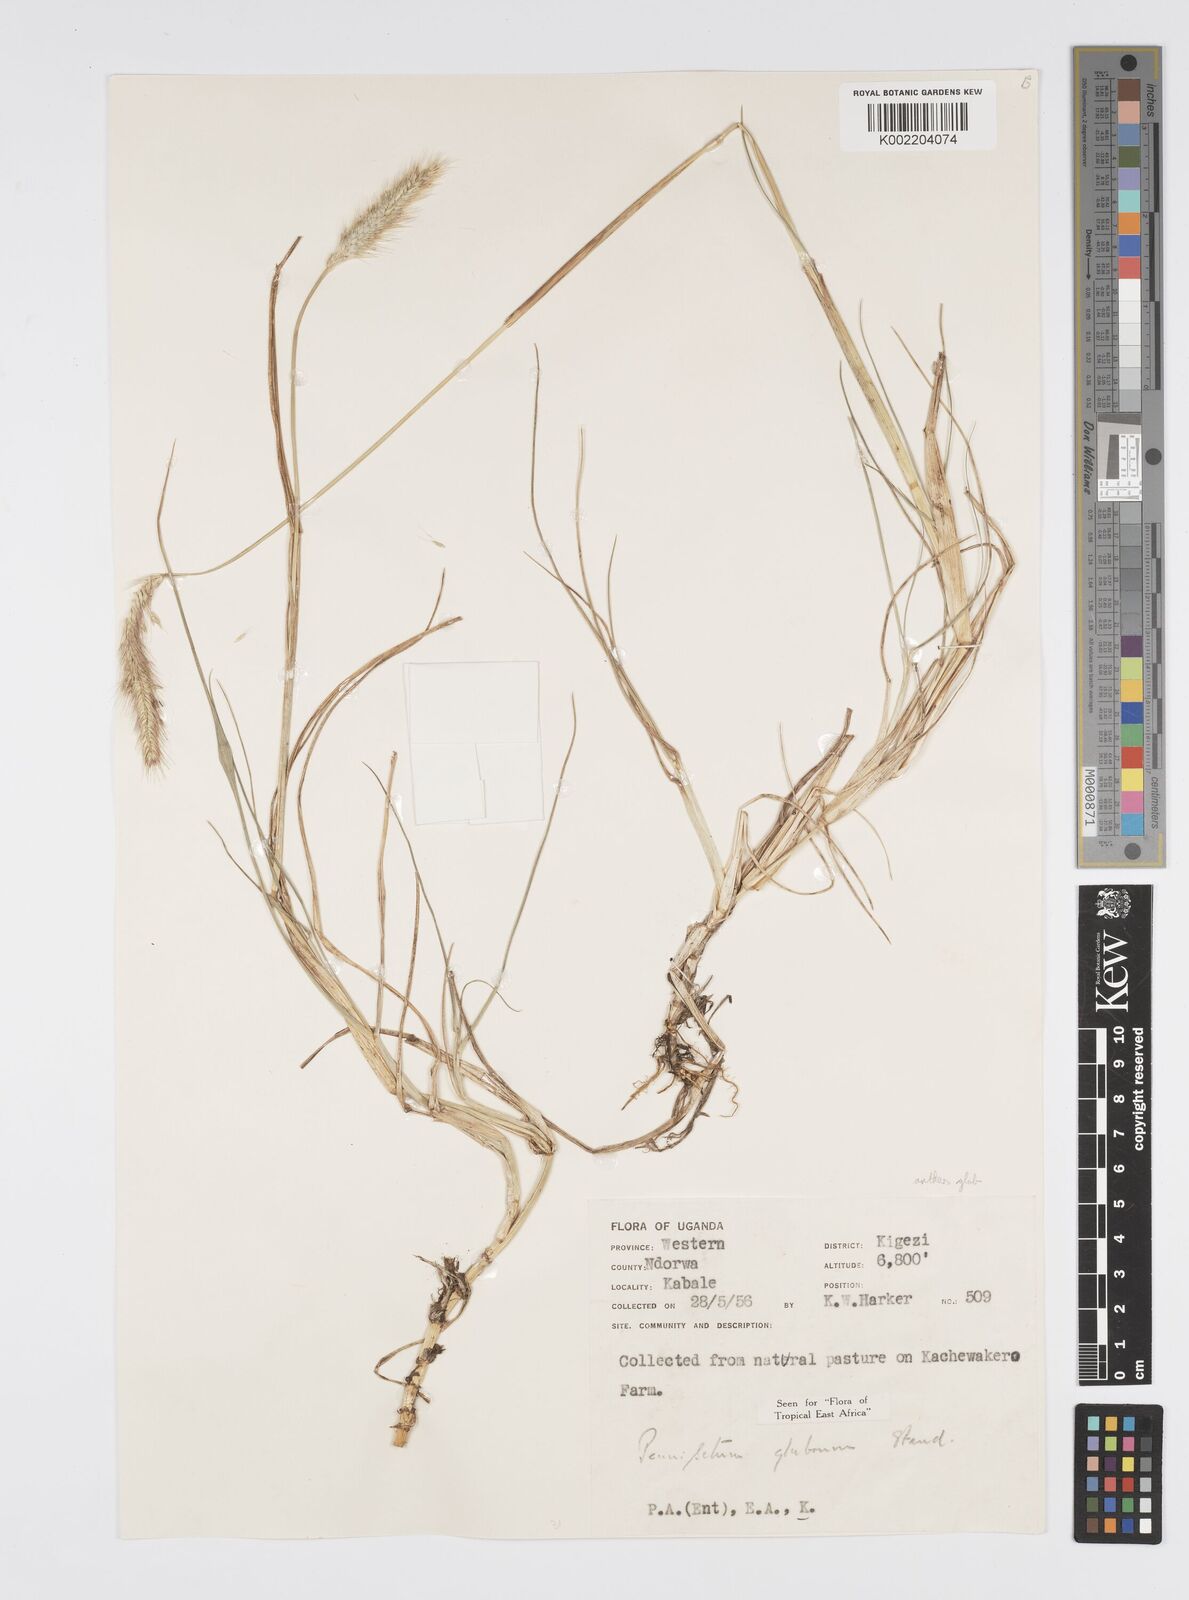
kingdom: Plantae
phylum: Tracheophyta
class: Liliopsida
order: Poales
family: Poaceae
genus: Cenchrus
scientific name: Cenchrus geniculatus
